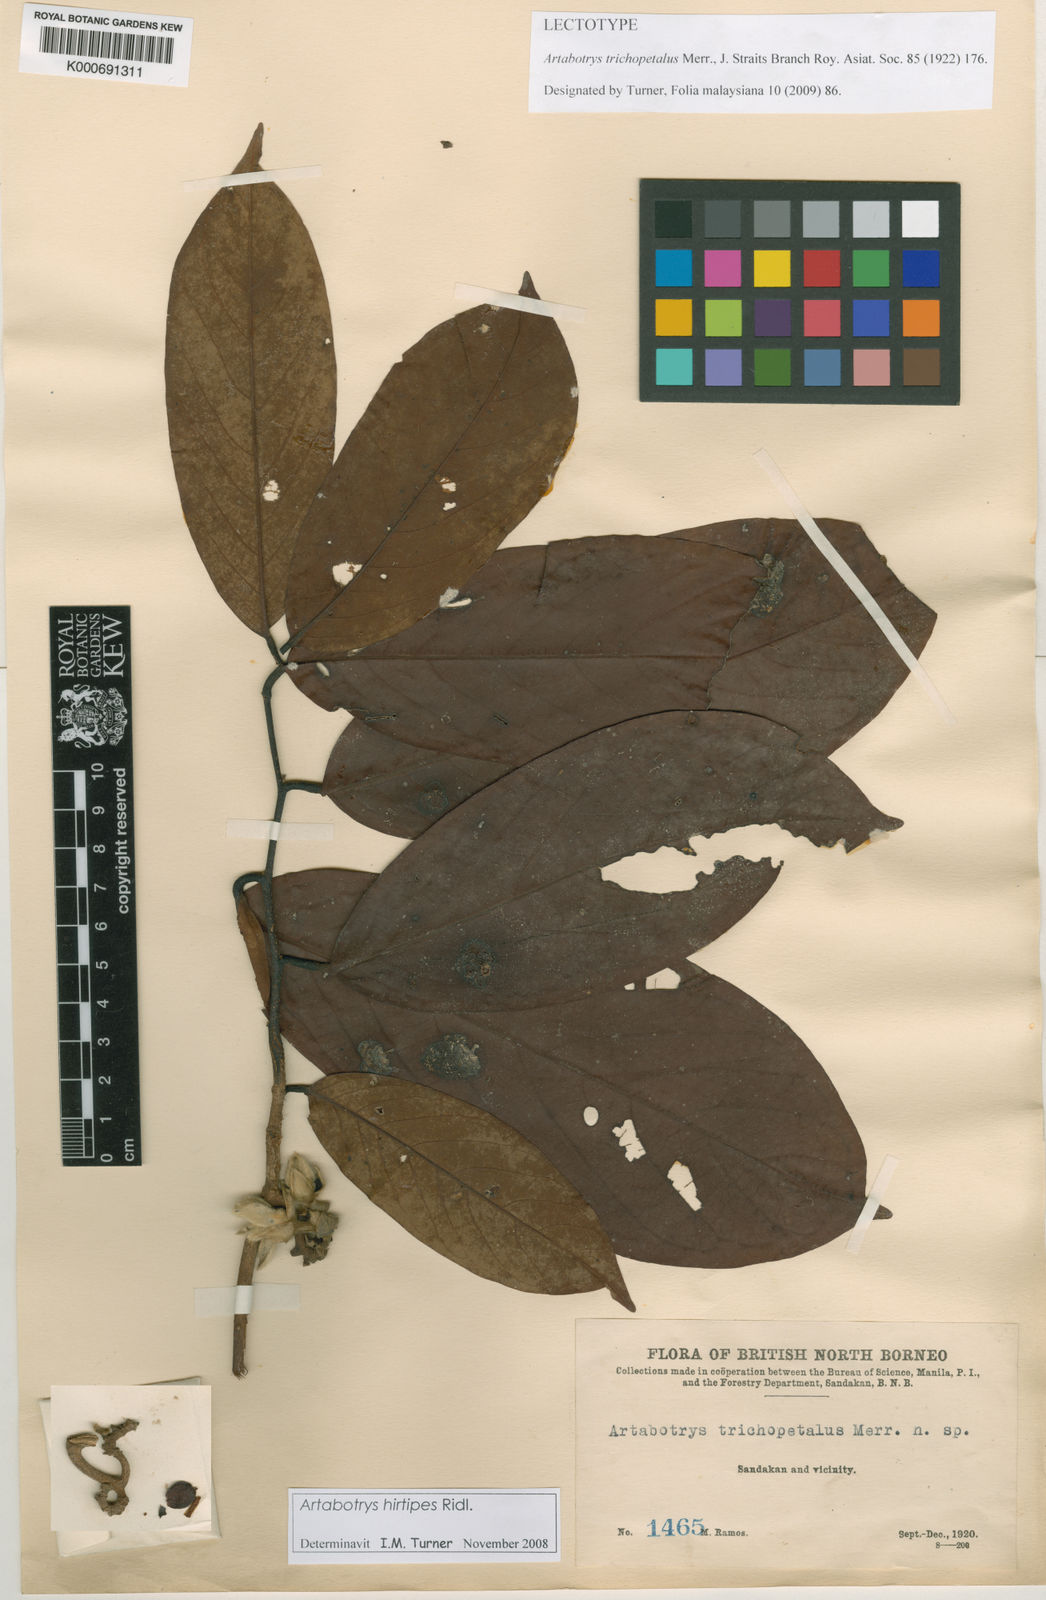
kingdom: Plantae
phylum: Tracheophyta
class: Magnoliopsida
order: Magnoliales
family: Annonaceae
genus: Artabotrys
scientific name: Artabotrys hirtipes
